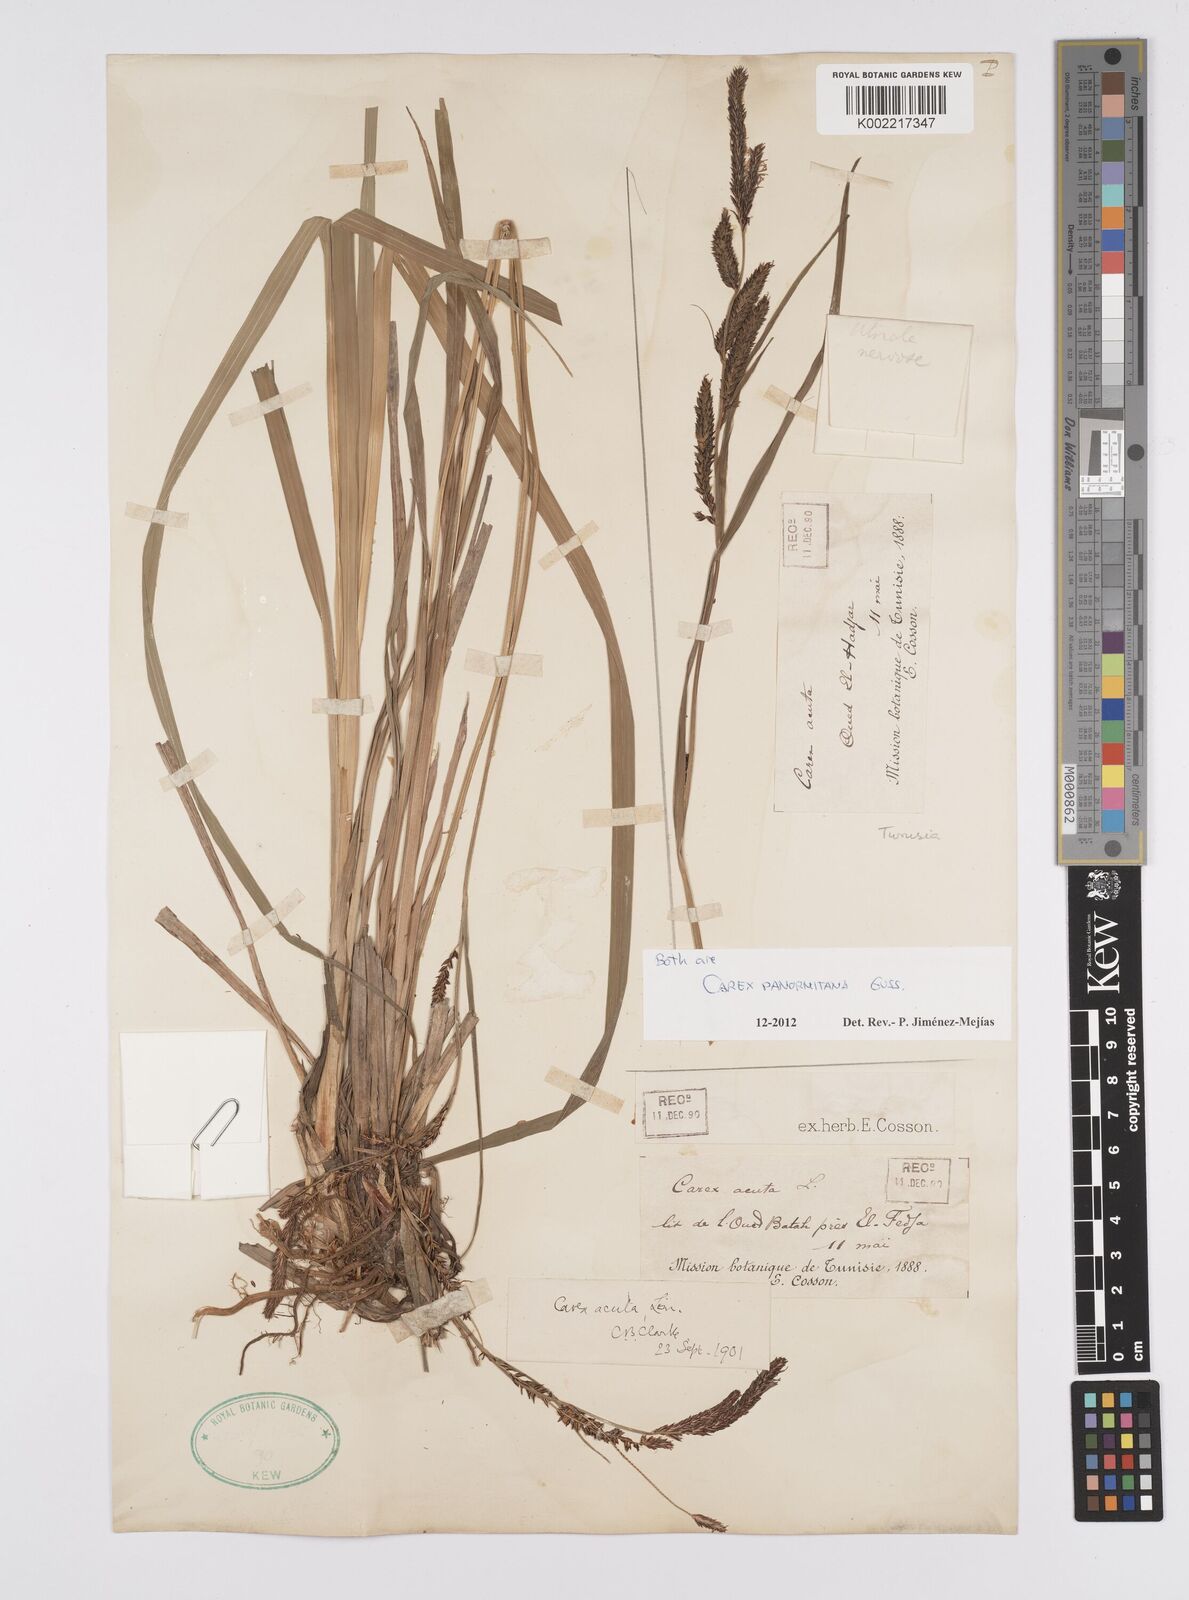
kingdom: Plantae
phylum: Tracheophyta
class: Liliopsida
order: Poales
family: Cyperaceae
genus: Carex
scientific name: Carex panormitana
